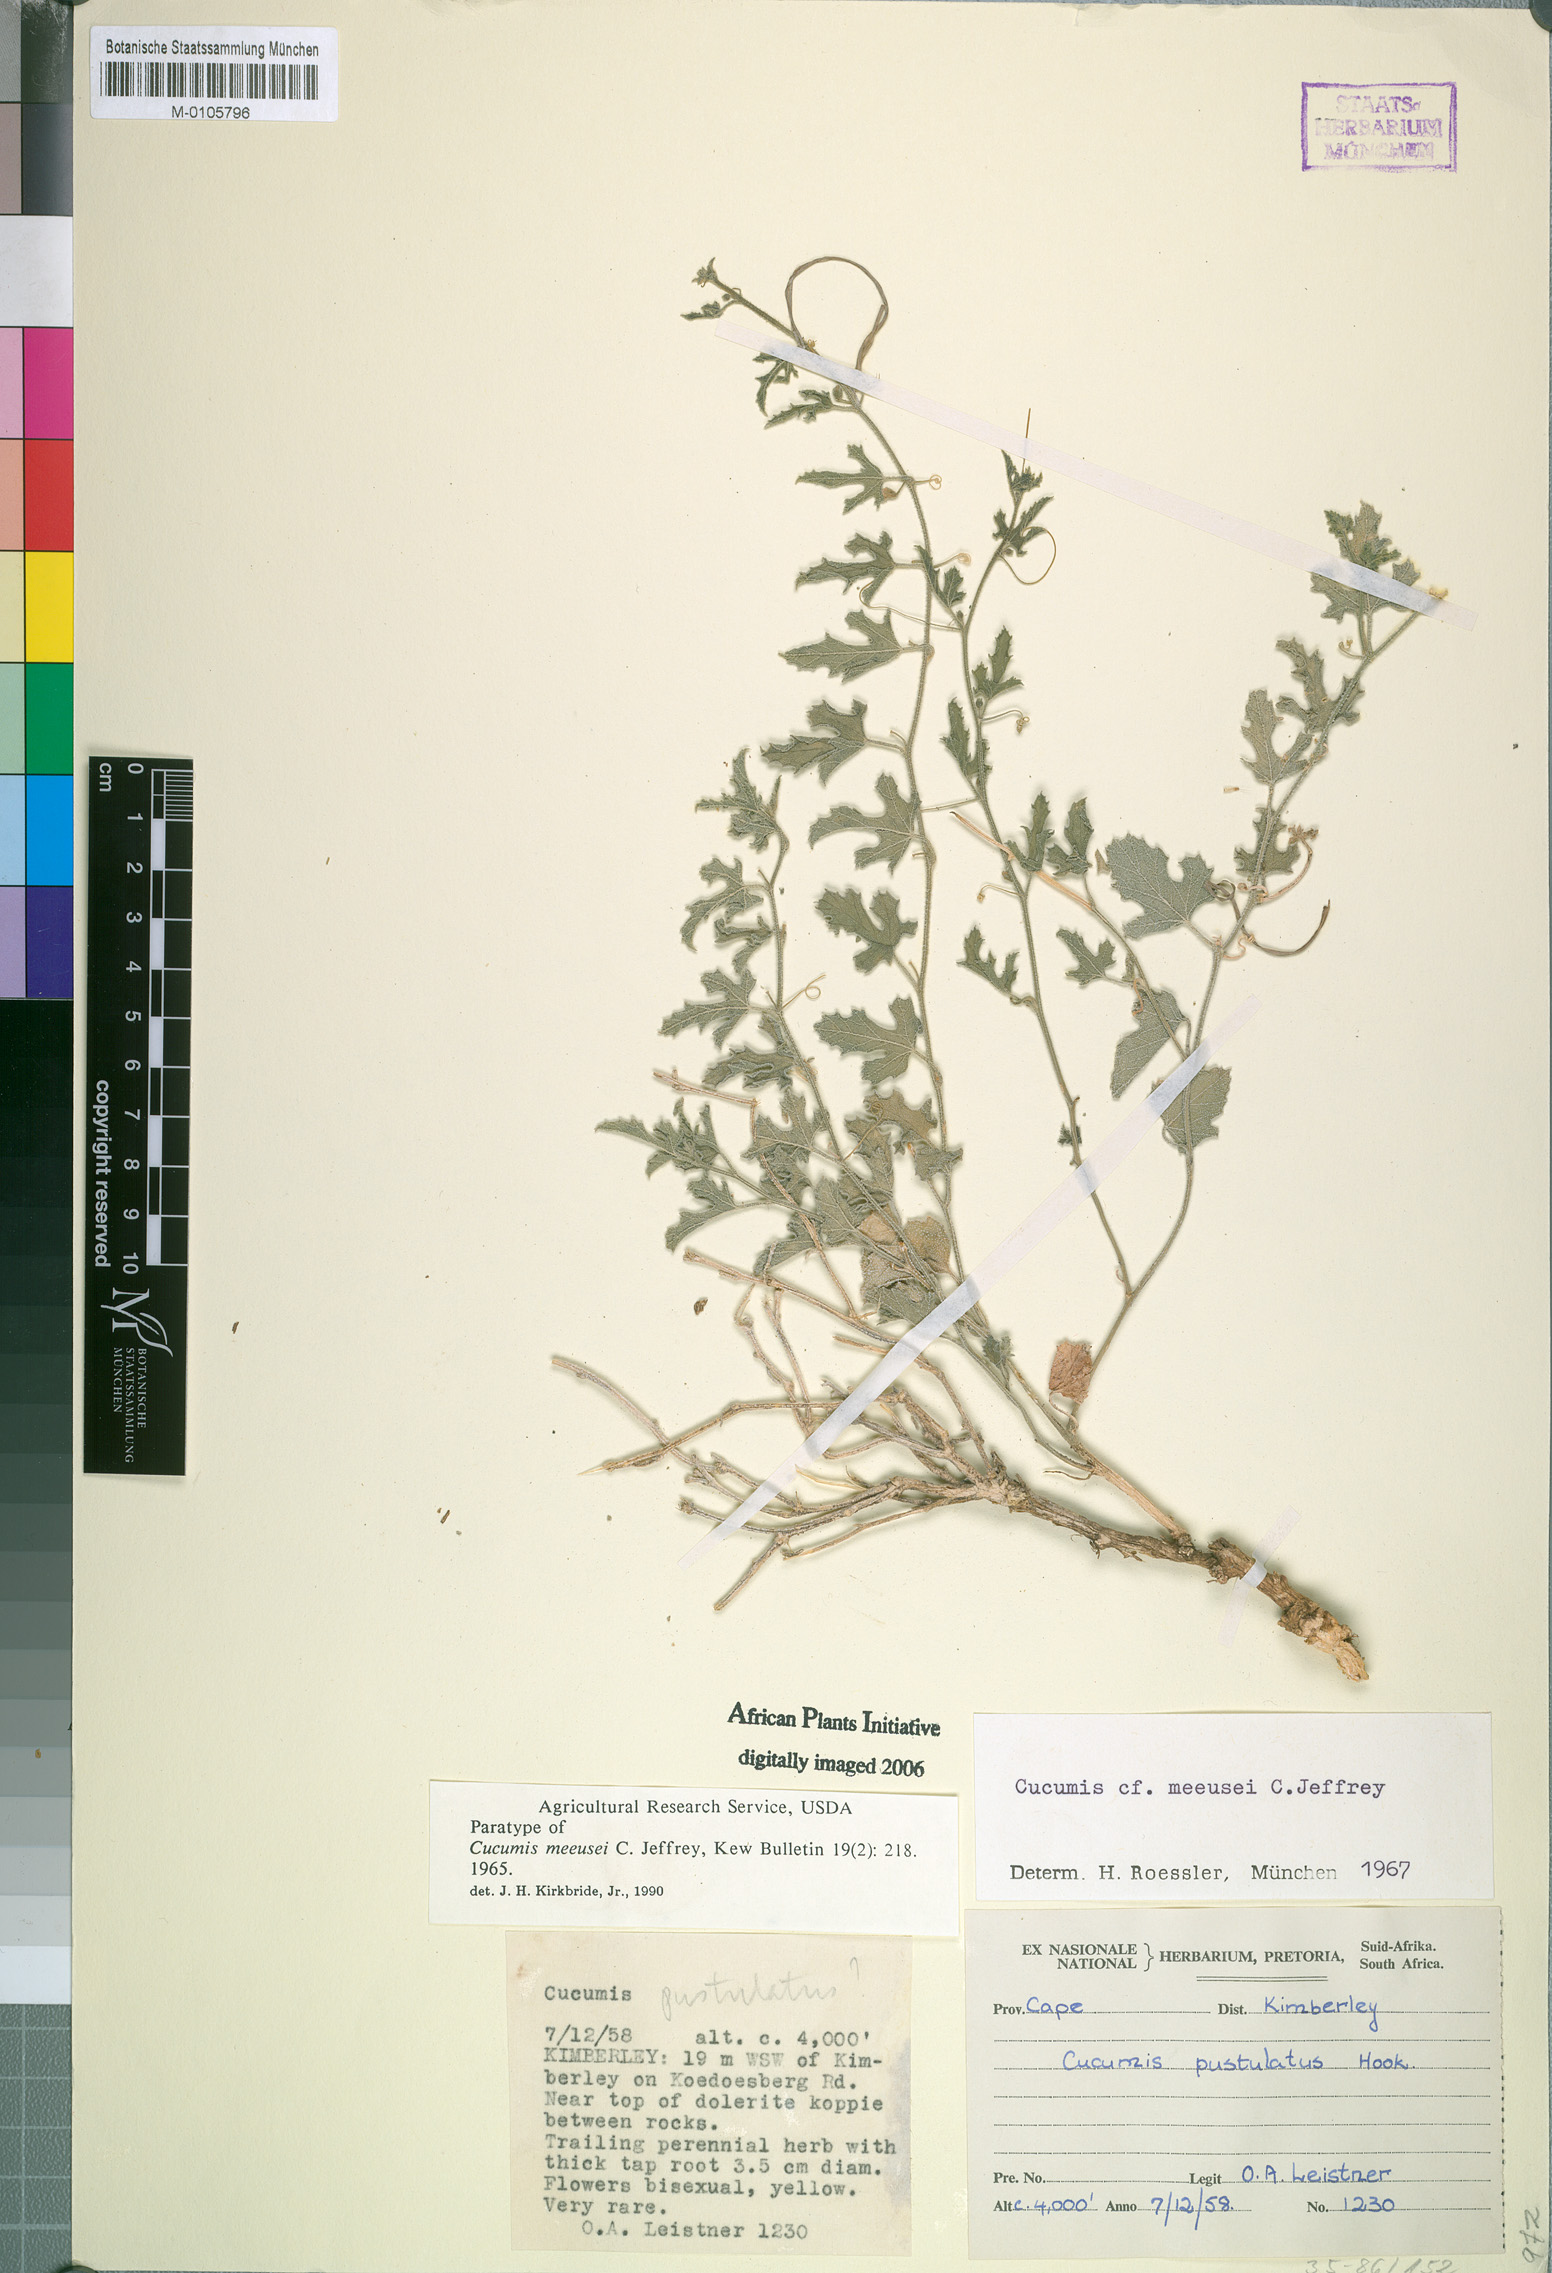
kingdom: Plantae
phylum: Tracheophyta
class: Magnoliopsida
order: Cucurbitales
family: Cucurbitaceae
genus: Cucumis
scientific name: Cucumis meeusei
